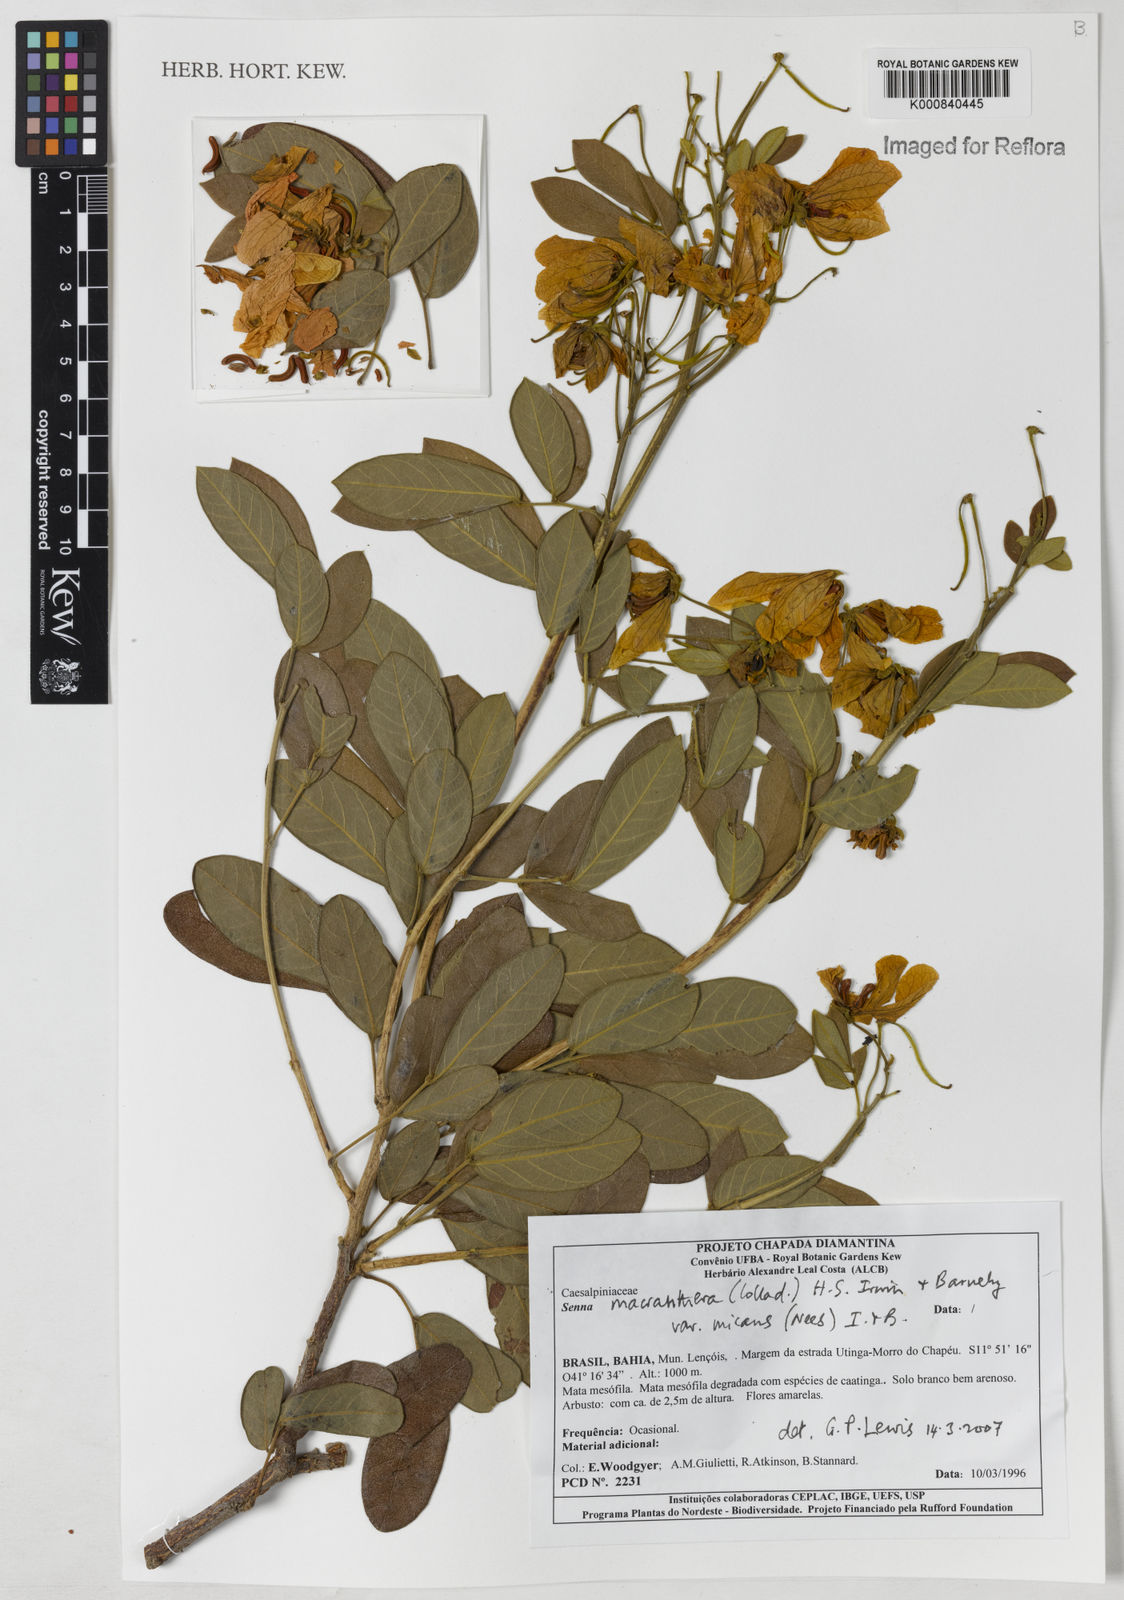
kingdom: Plantae
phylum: Tracheophyta
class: Magnoliopsida
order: Fabales
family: Fabaceae
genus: Senna
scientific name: Senna macranthera
